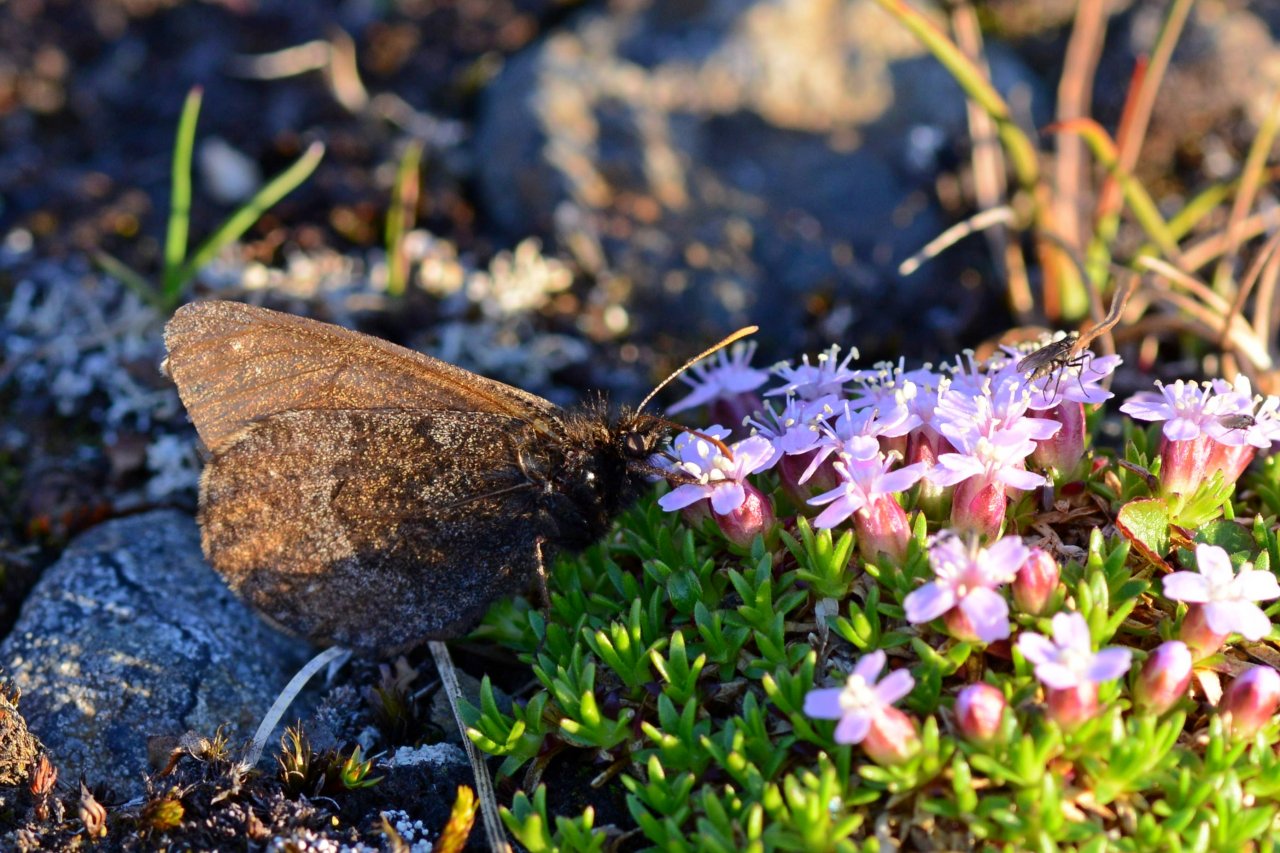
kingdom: Animalia
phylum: Arthropoda
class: Insecta
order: Lepidoptera
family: Nymphalidae
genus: Oeneis
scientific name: Oeneis bore
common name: Polixenes Arctic
